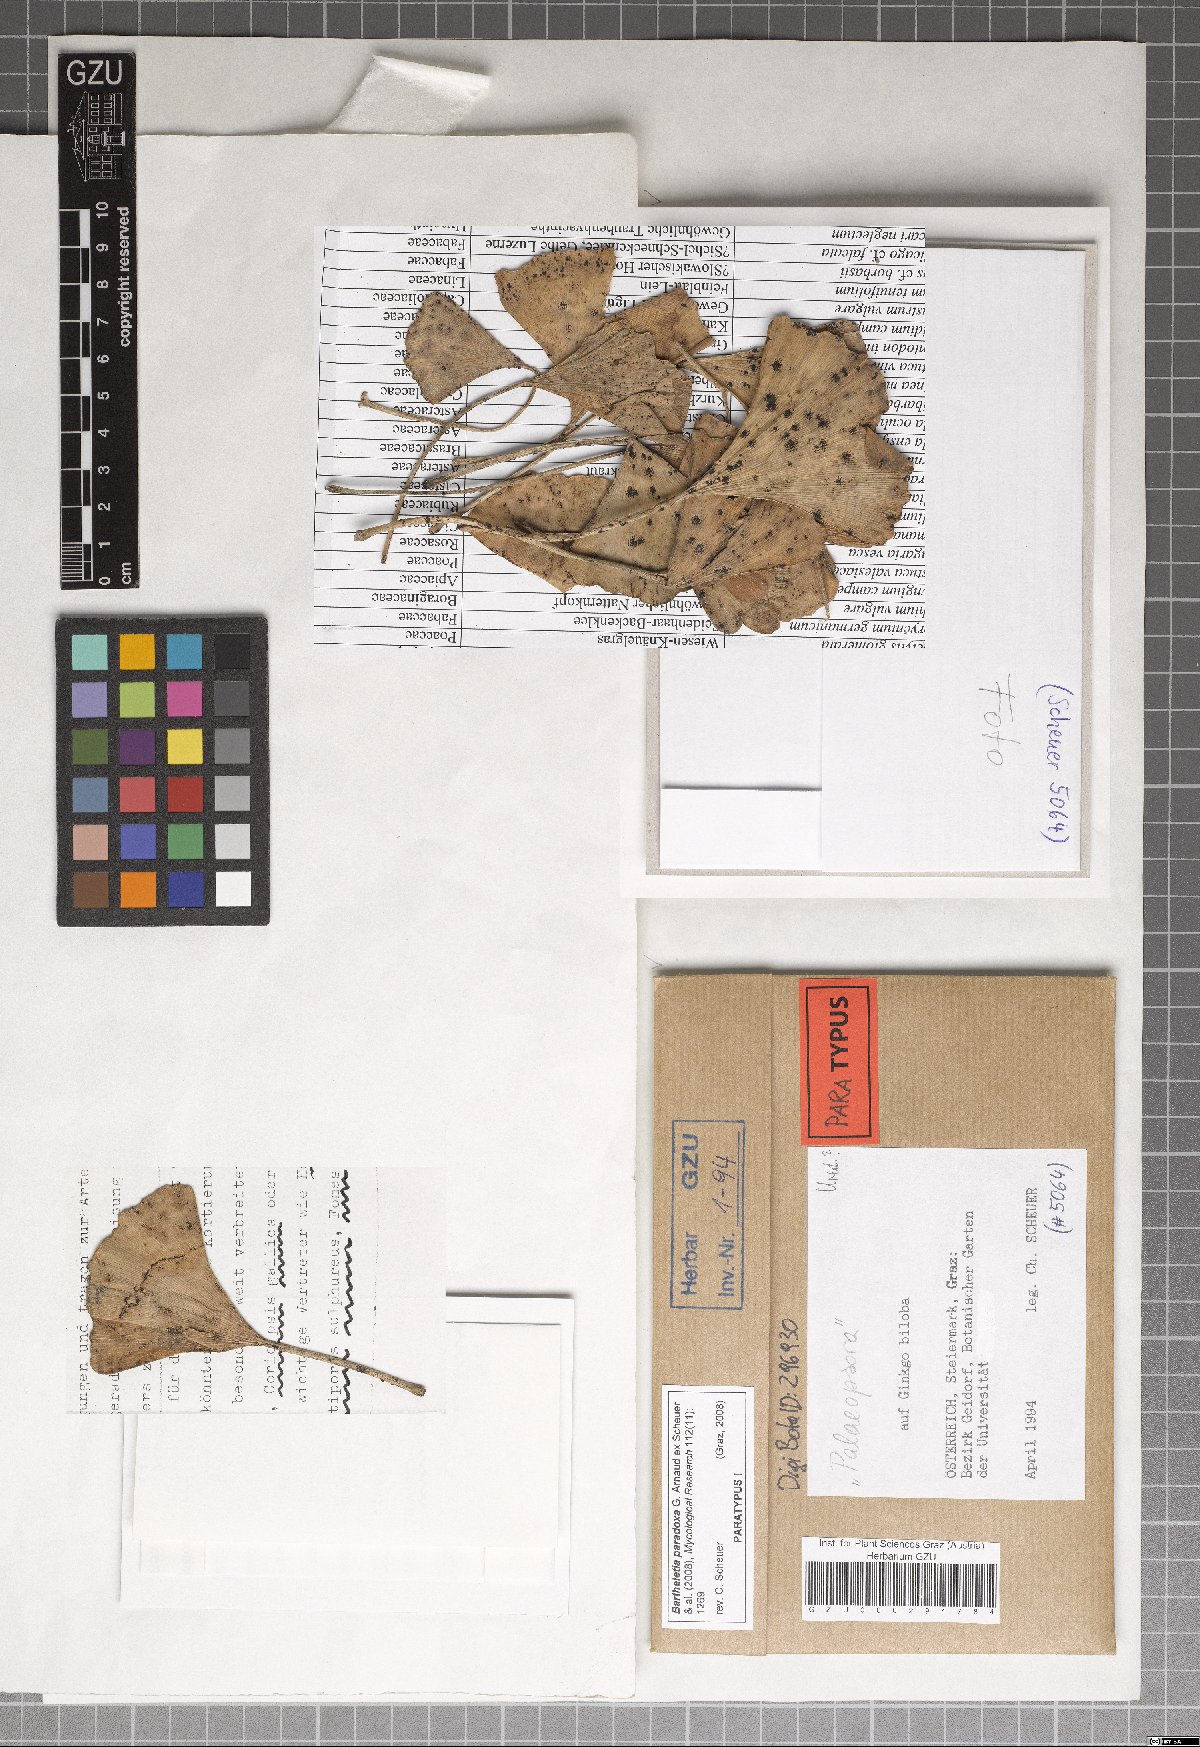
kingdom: Fungi
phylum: Basidiomycota
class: Wallemiomycetes
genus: Bartheletia
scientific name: Bartheletia paradoxa
